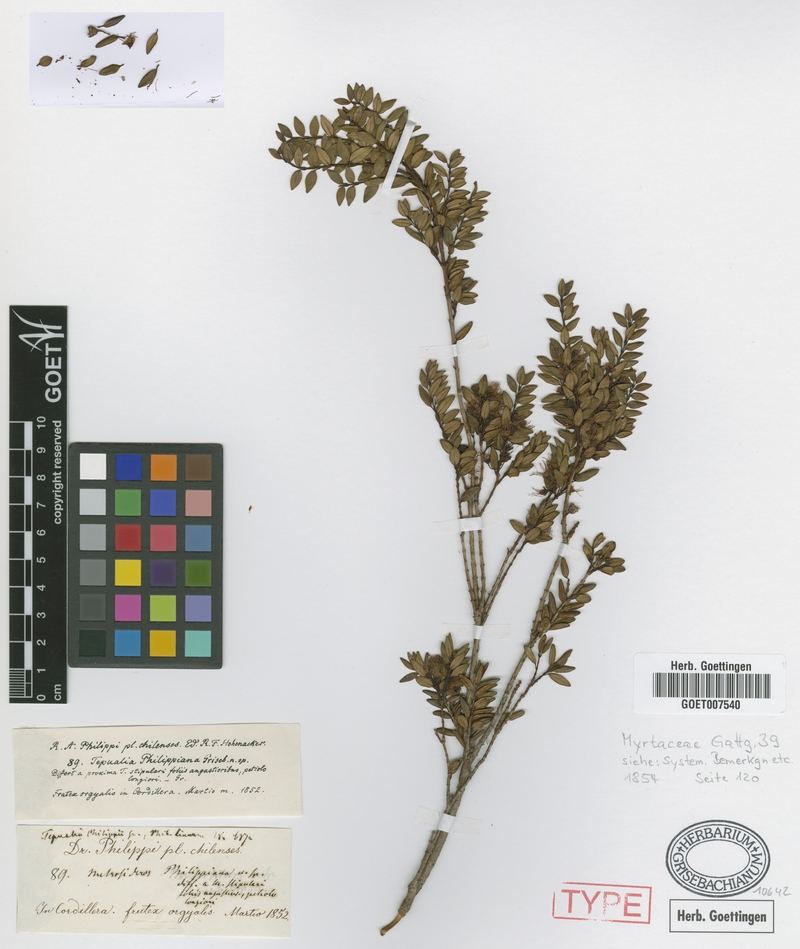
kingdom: Plantae
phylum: Tracheophyta
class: Magnoliopsida
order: Myrtales
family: Myrtaceae
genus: Tepualia
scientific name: Tepualia stipularis
